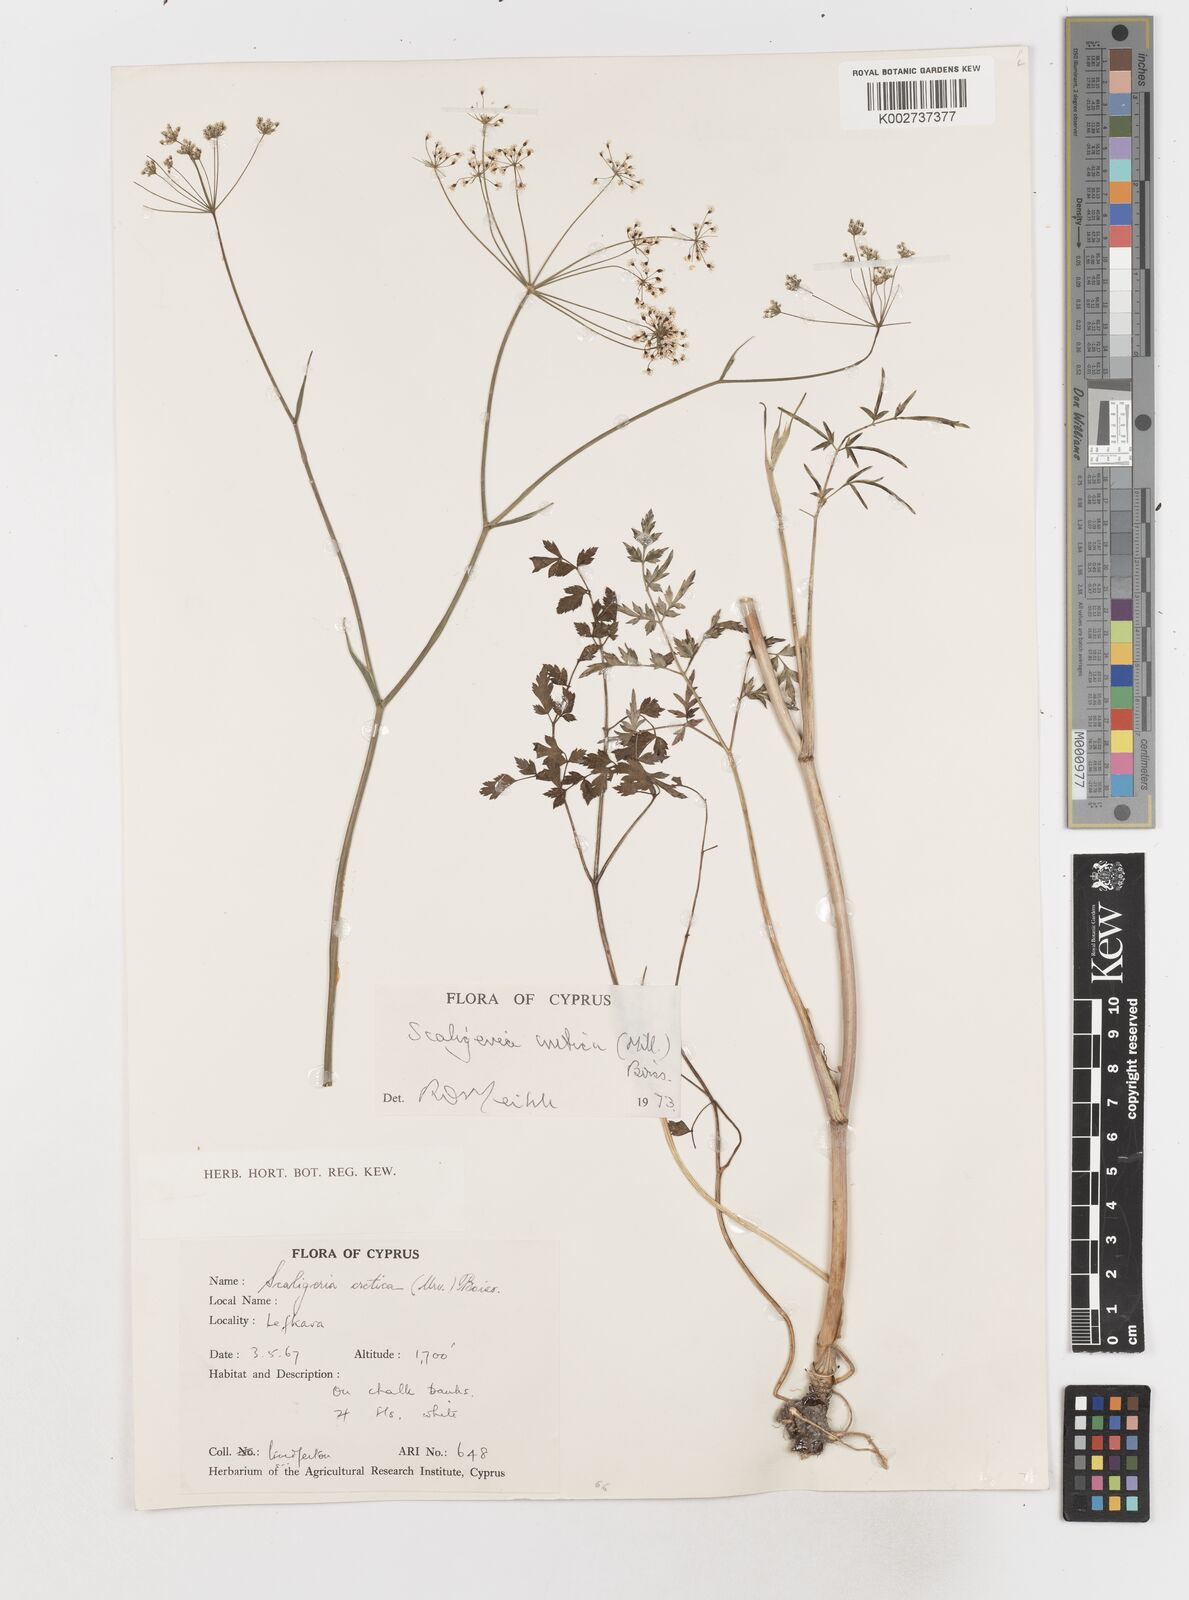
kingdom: Plantae
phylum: Tracheophyta
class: Magnoliopsida
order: Apiales
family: Apiaceae
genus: Scaligeria
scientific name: Scaligeria
